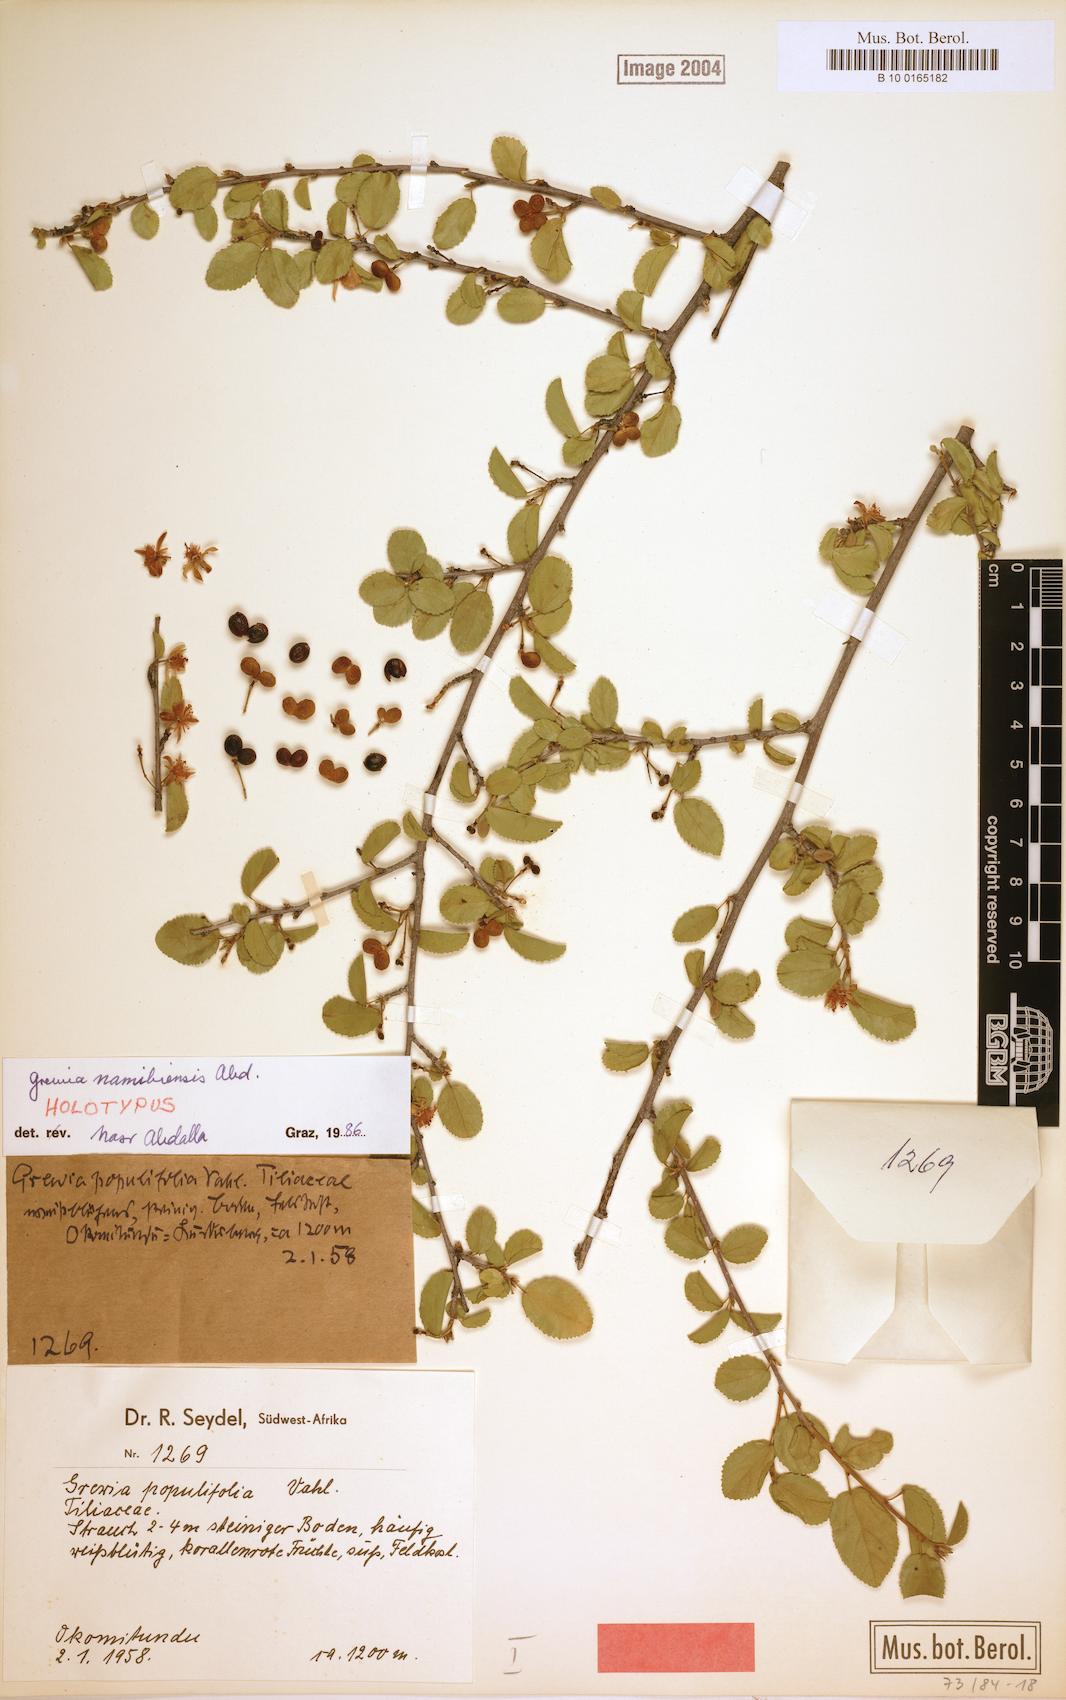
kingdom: Plantae
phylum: Tracheophyta
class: Magnoliopsida
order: Malvales
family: Malvaceae
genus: Grewia
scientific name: Grewia
